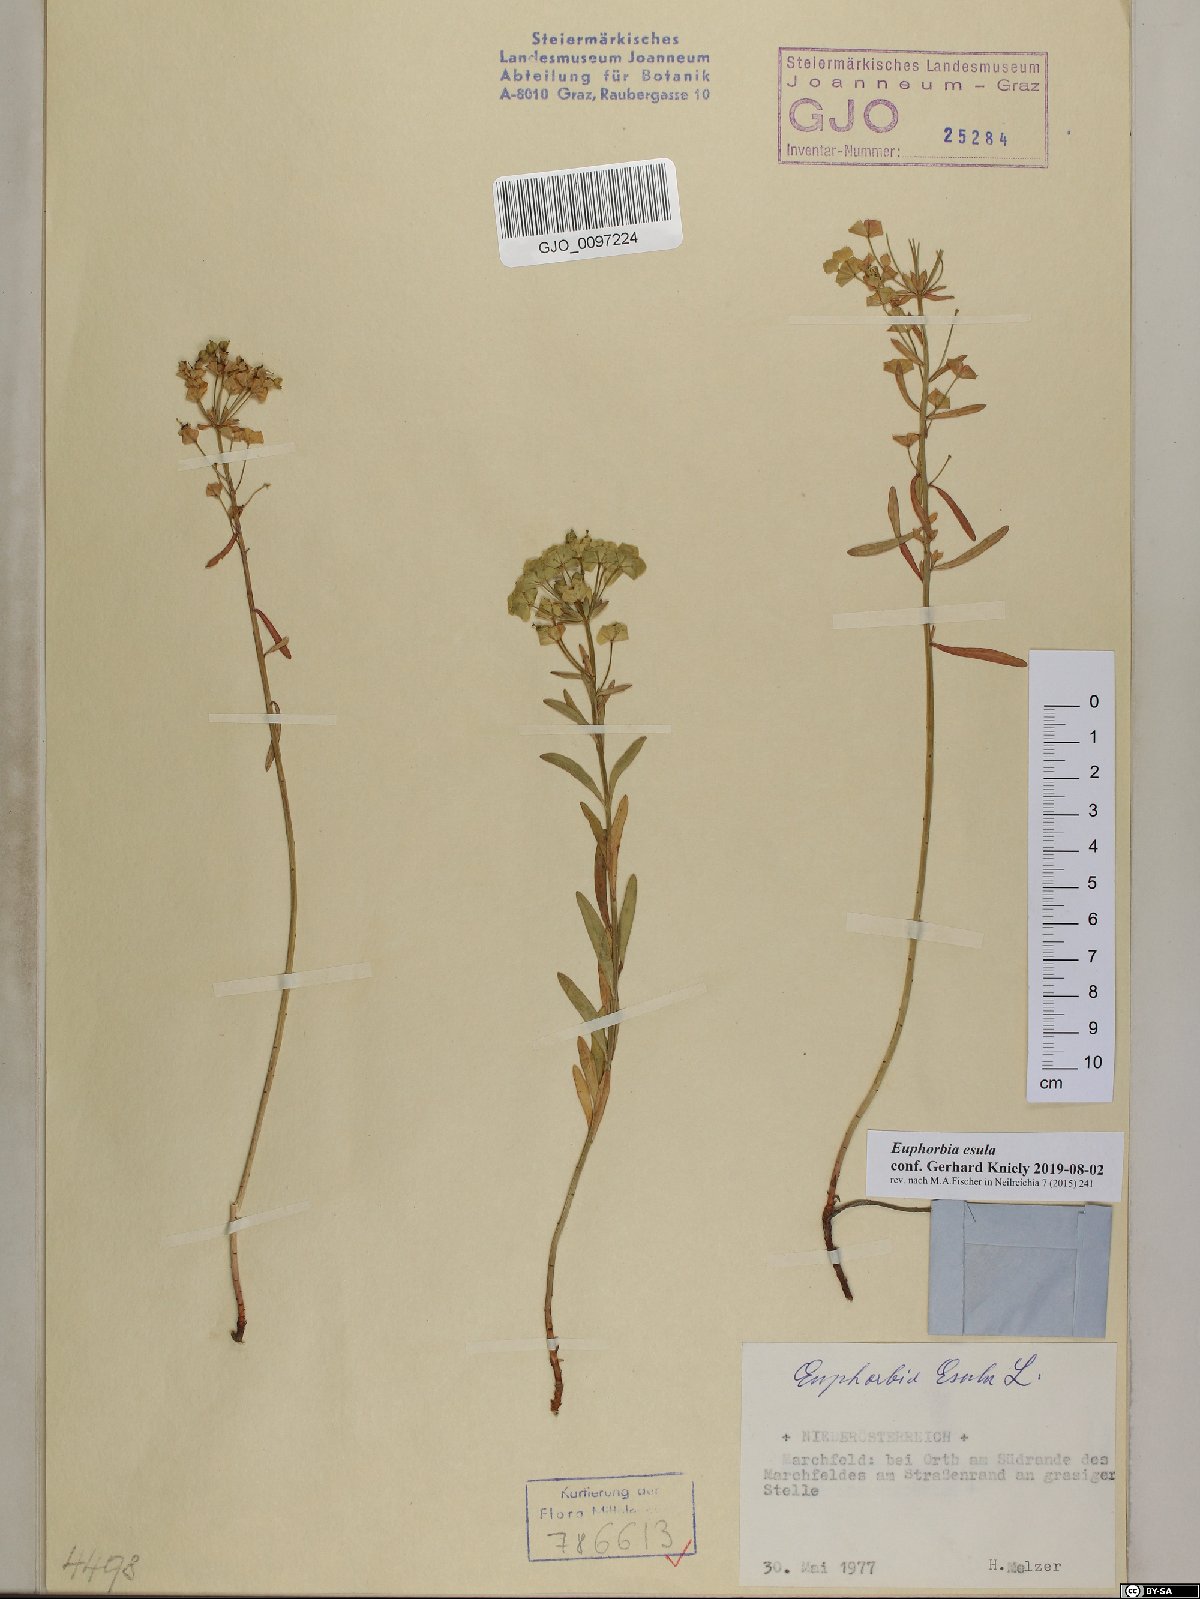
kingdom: Plantae
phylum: Tracheophyta
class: Magnoliopsida
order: Malpighiales
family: Euphorbiaceae
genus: Euphorbia
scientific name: Euphorbia esula
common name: Leafy spurge
